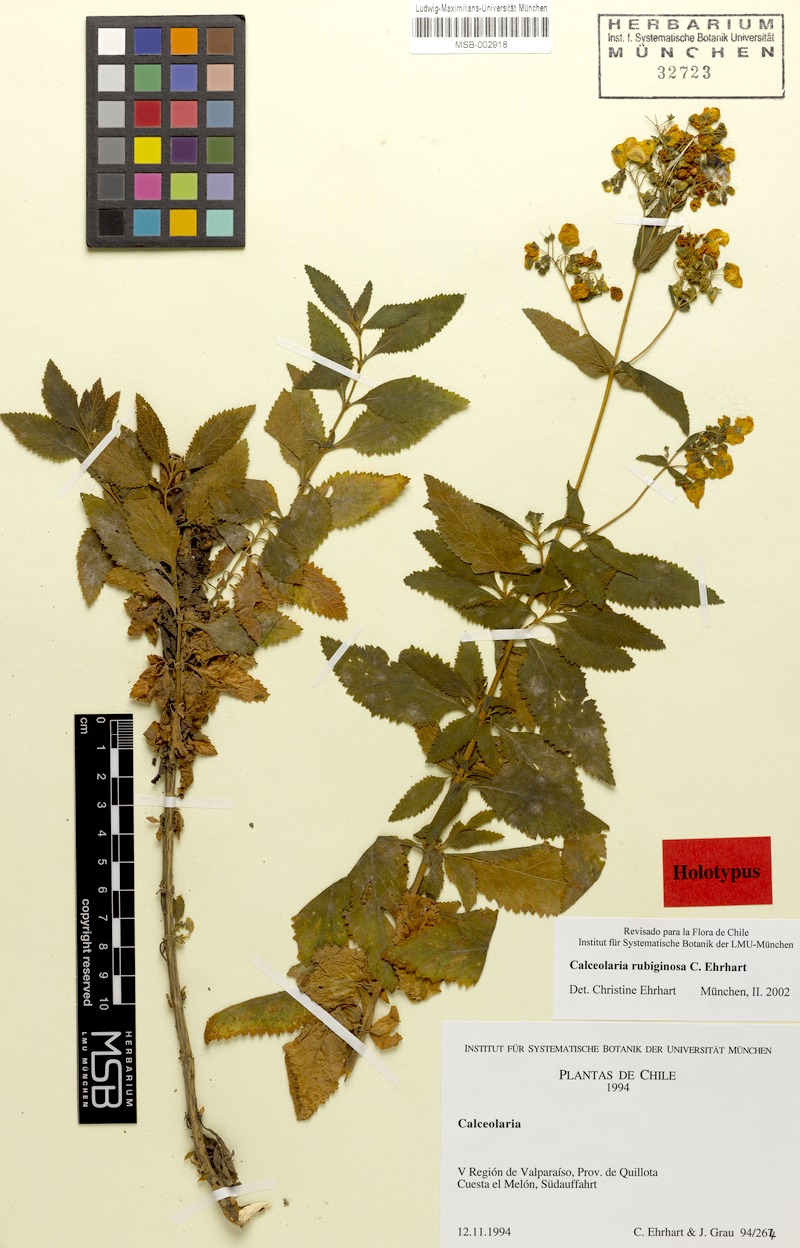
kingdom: Plantae
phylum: Tracheophyta
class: Magnoliopsida
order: Lamiales
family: Calceolariaceae
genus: Calceolaria
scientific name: Calceolaria rubiginosa
